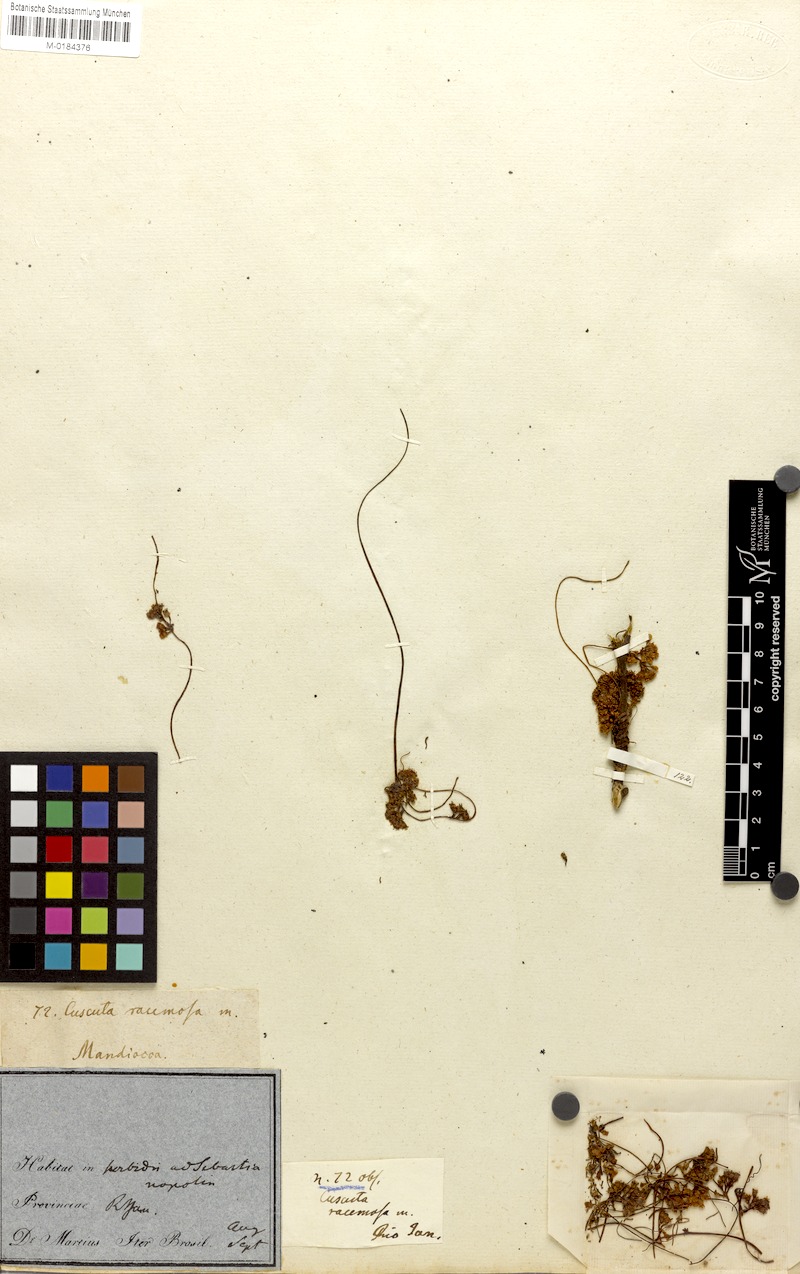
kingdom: Plantae
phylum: Tracheophyta
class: Magnoliopsida
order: Solanales
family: Convolvulaceae
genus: Cuscuta
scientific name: Cuscuta racemosa
